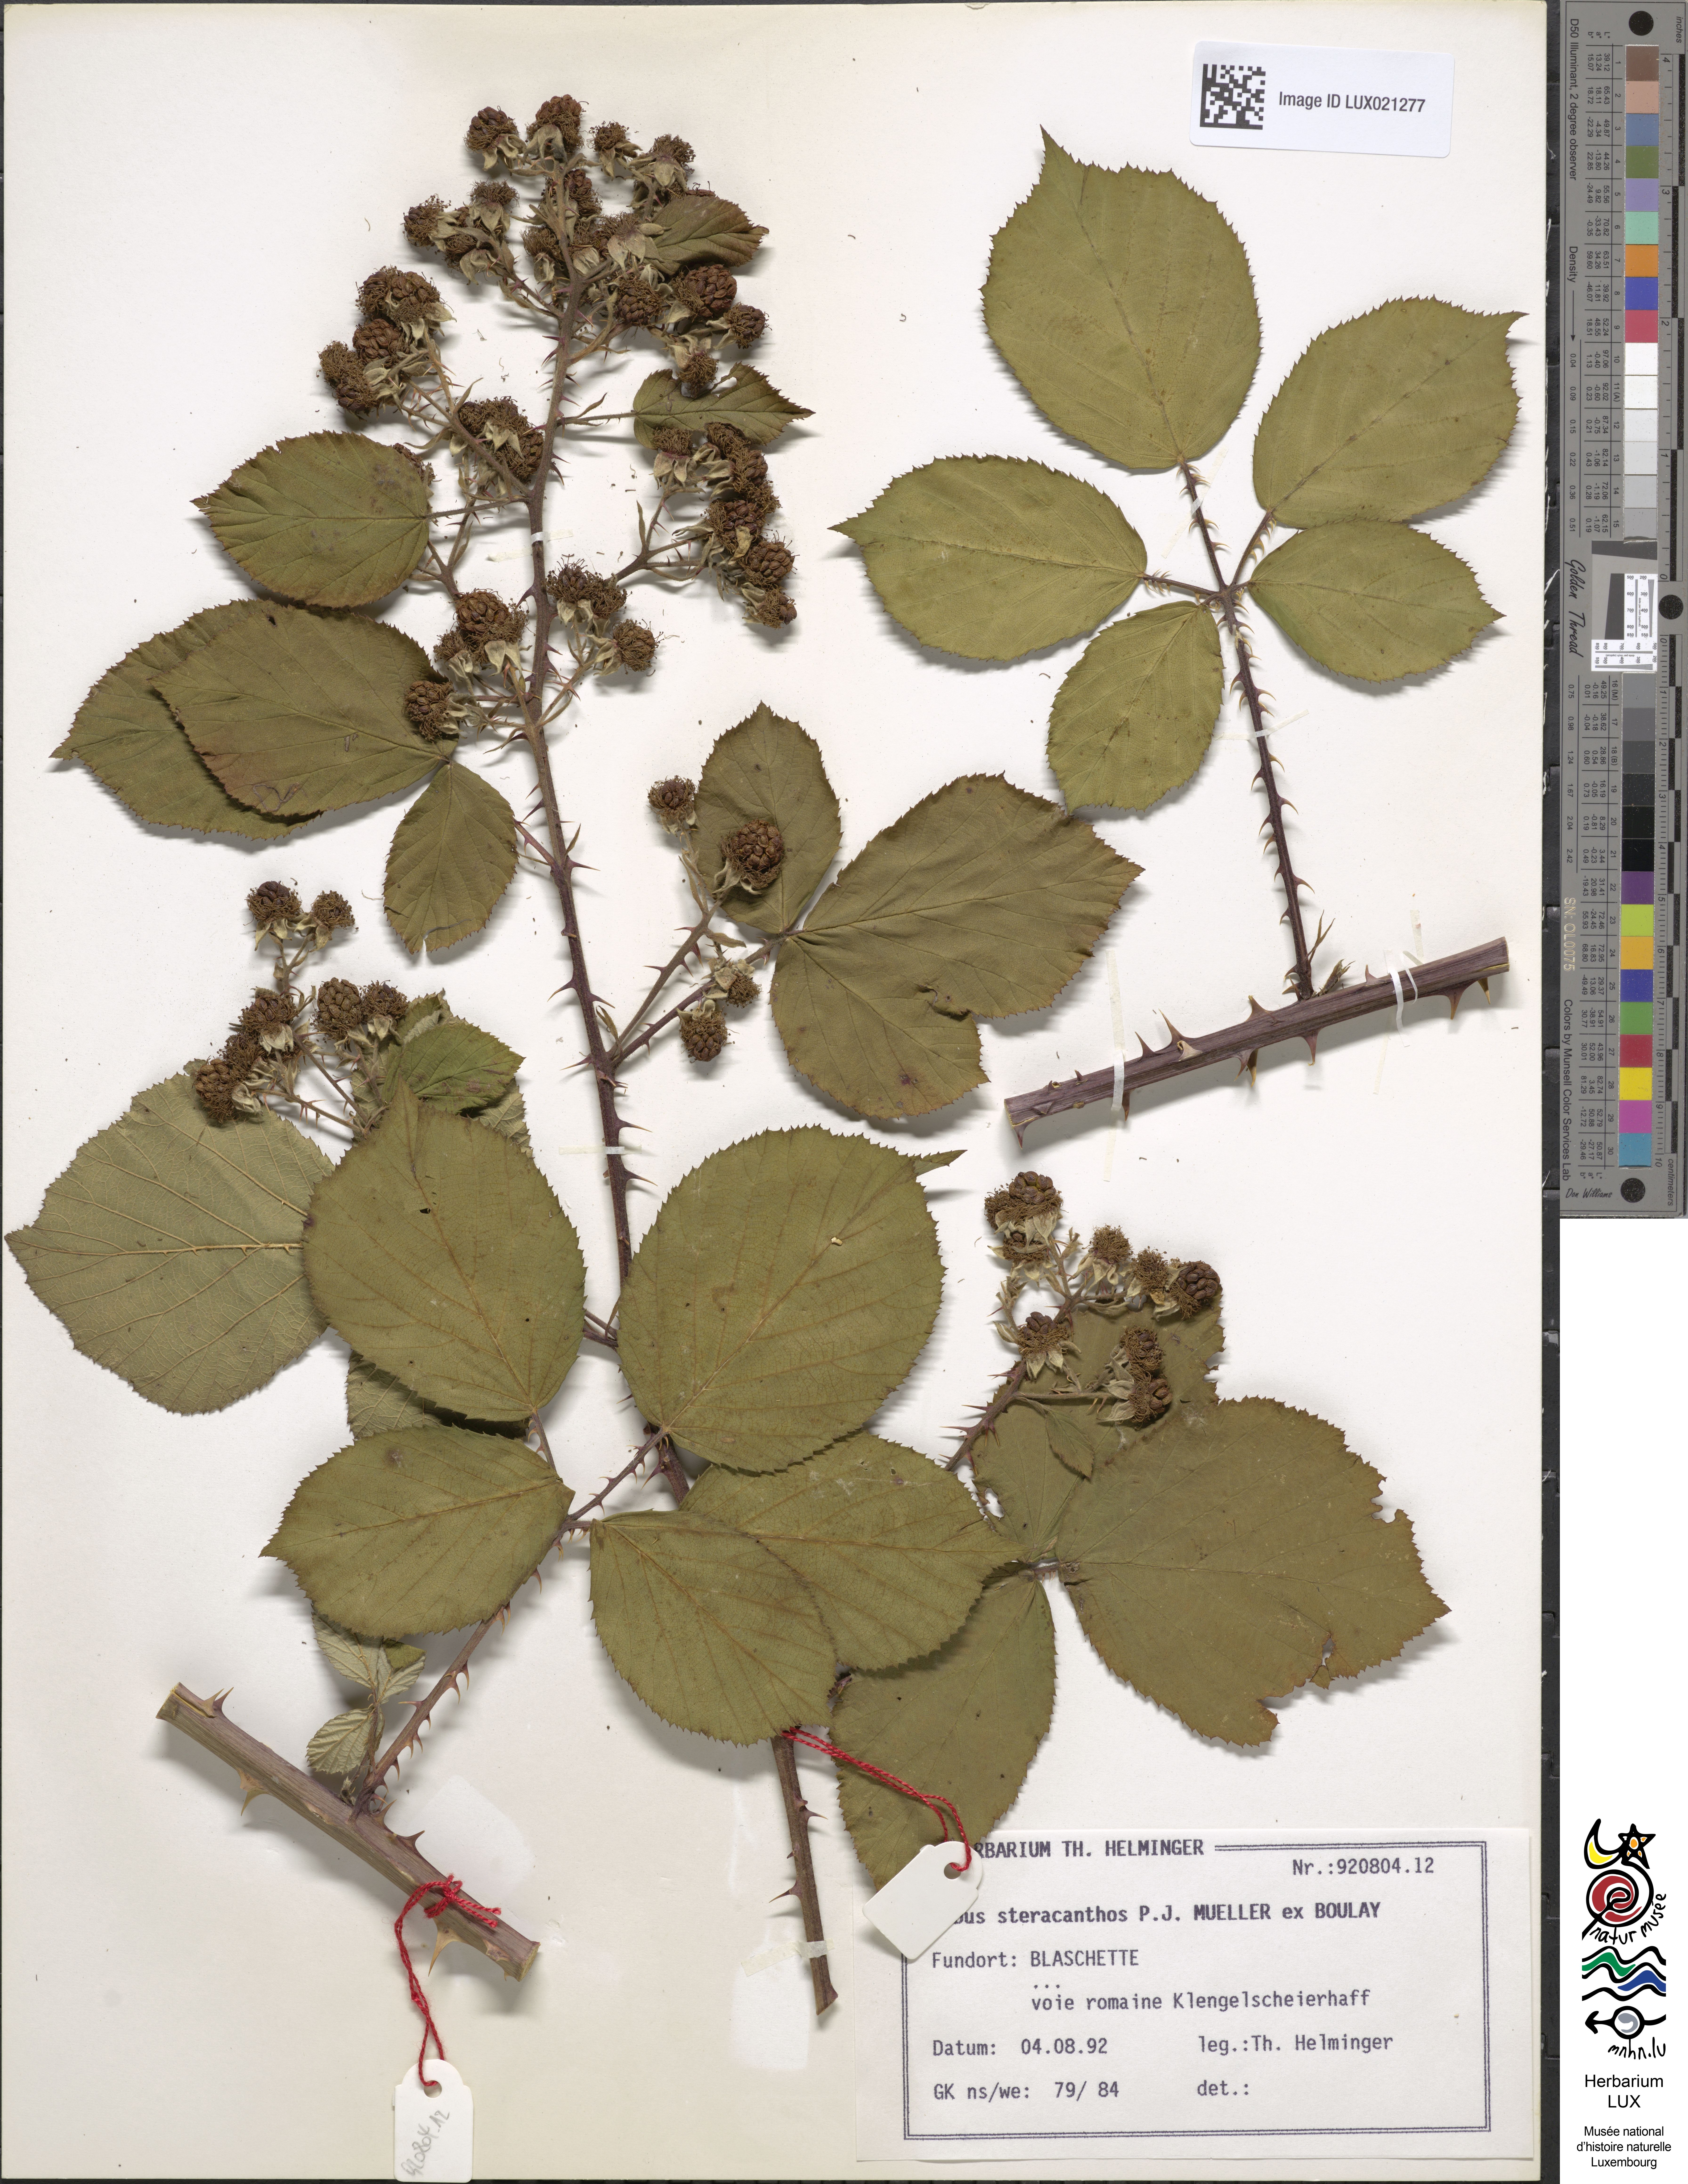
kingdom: Plantae
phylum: Tracheophyta
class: Magnoliopsida
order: Rosales
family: Rosaceae
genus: Rubus
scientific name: Rubus steracanthos
